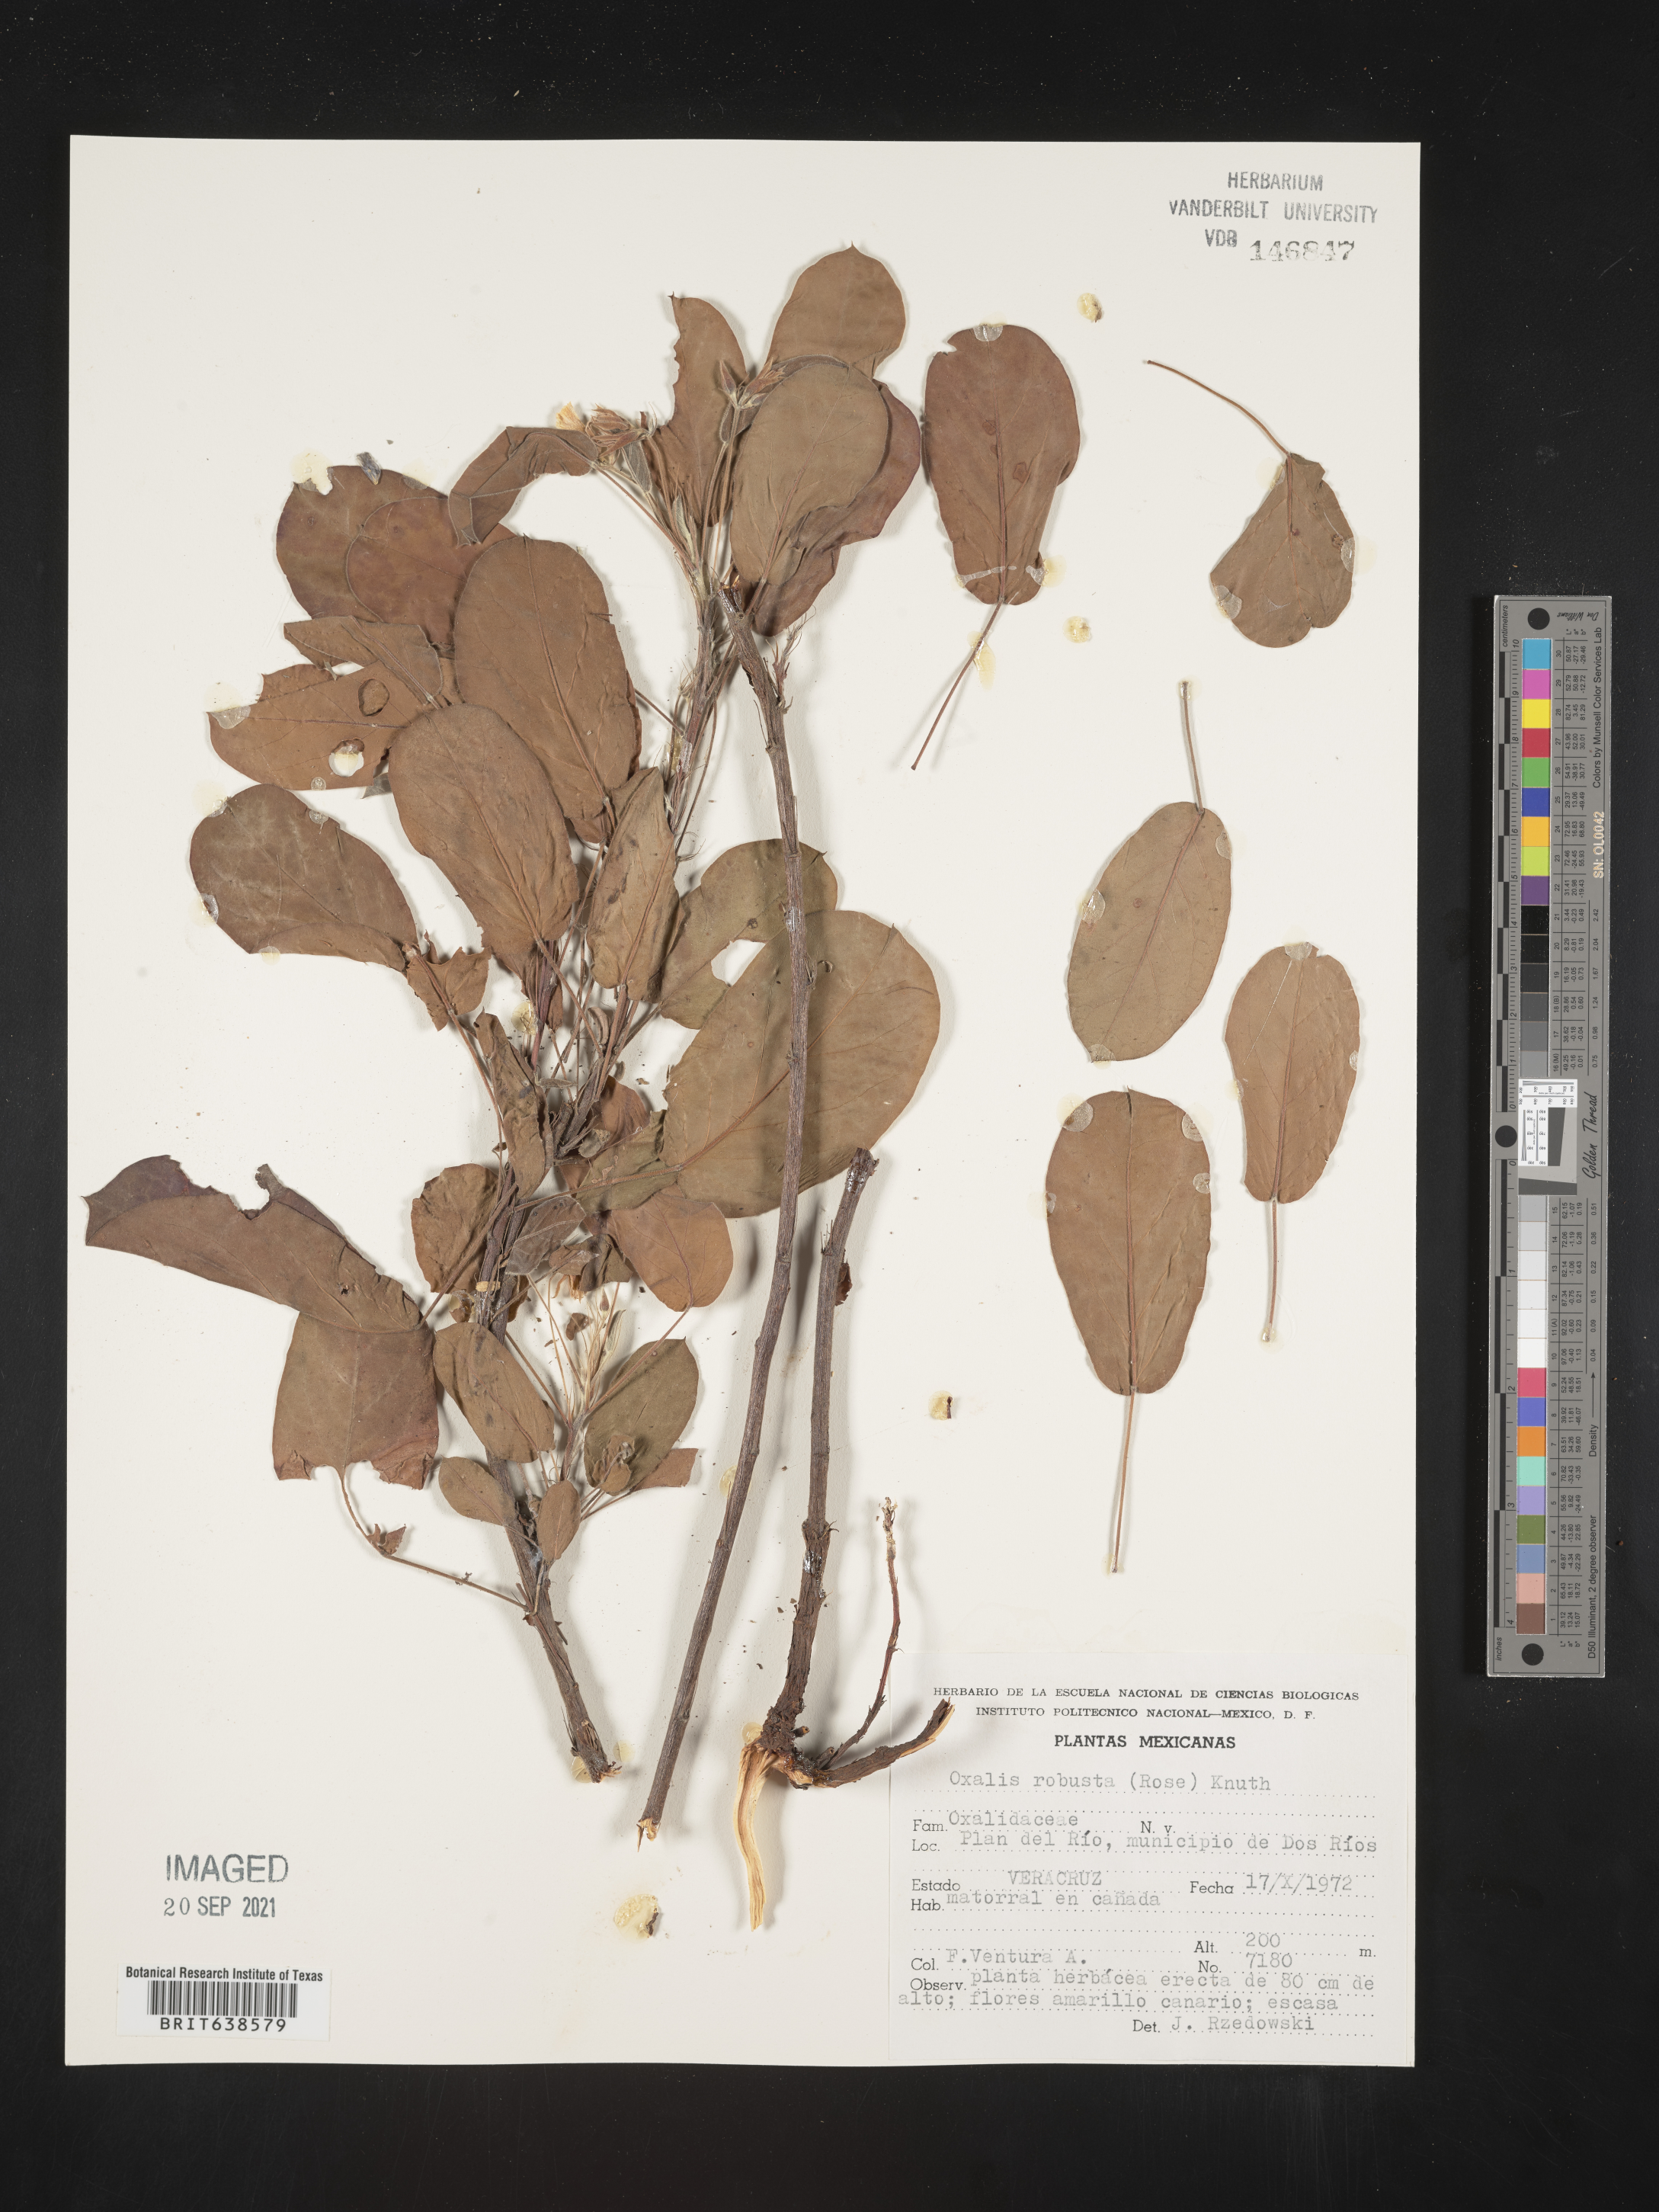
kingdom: Plantae
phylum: Tracheophyta
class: Magnoliopsida
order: Oxalidales
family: Oxalidaceae
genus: Oxalis
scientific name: Oxalis
